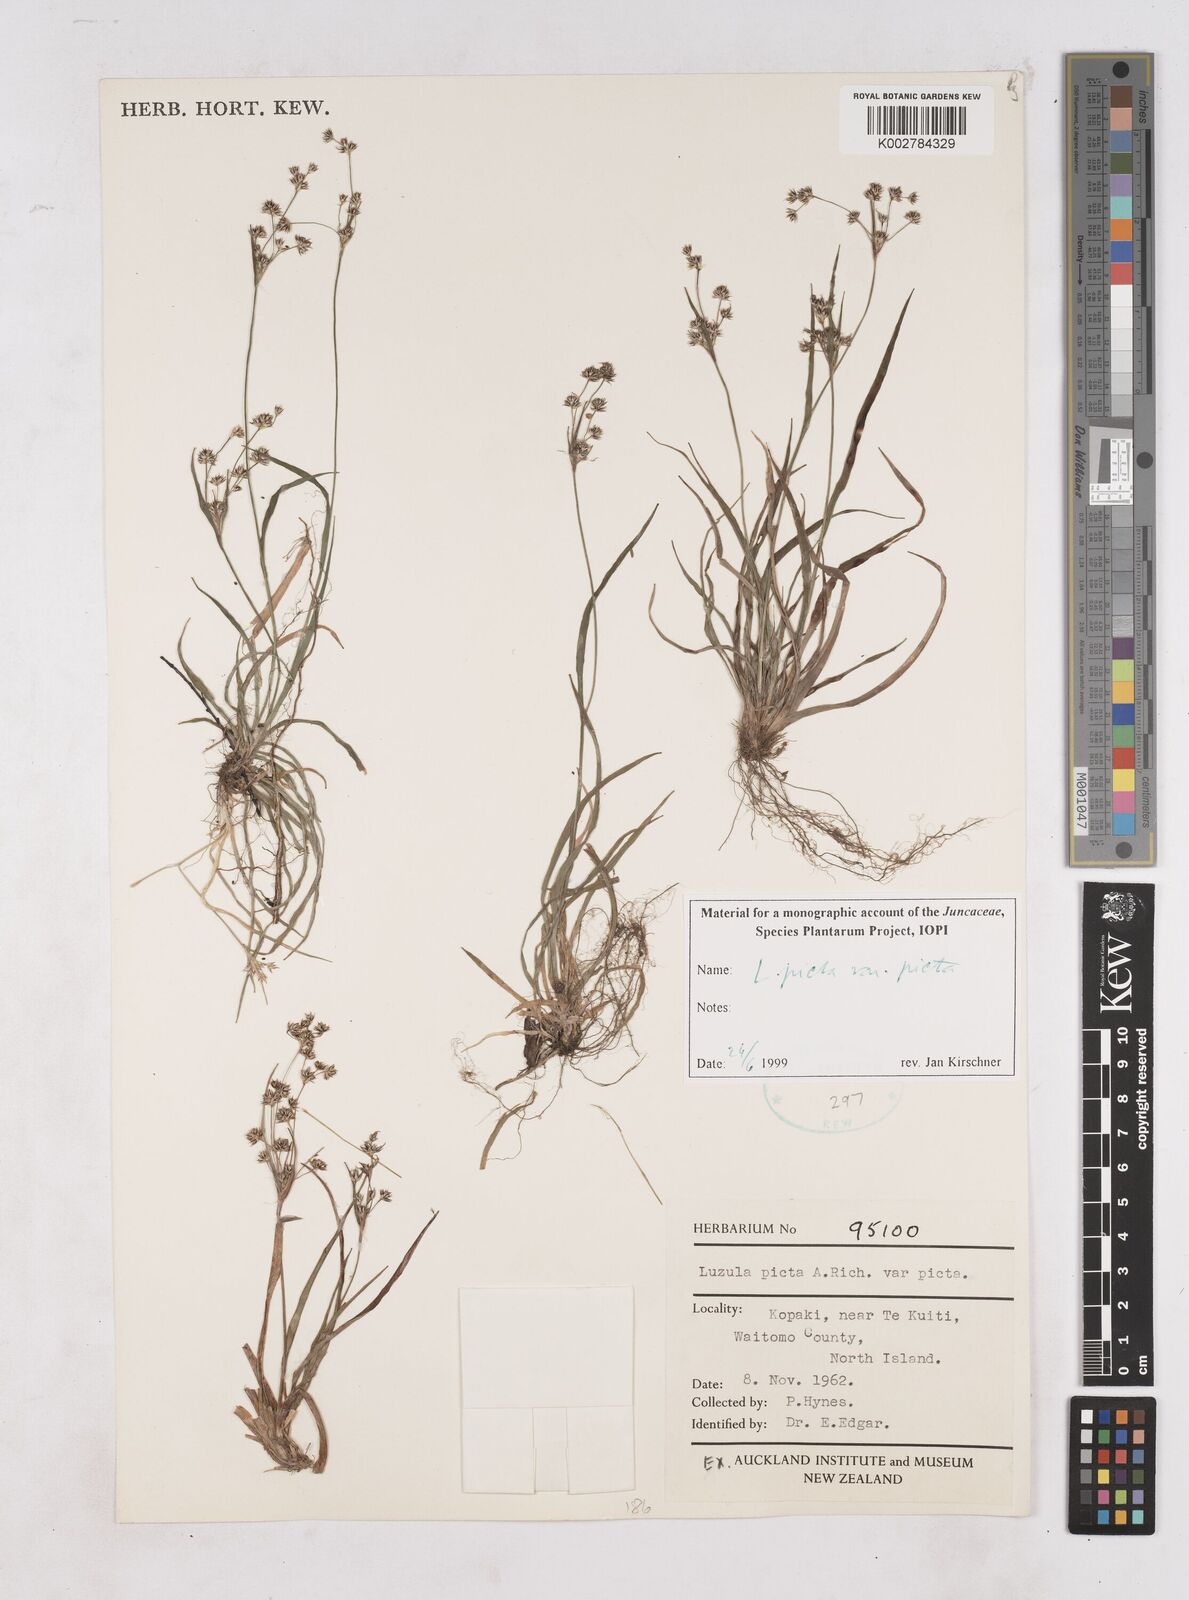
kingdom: Plantae
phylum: Tracheophyta
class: Liliopsida
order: Poales
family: Juncaceae
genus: Luzula
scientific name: Luzula picta
